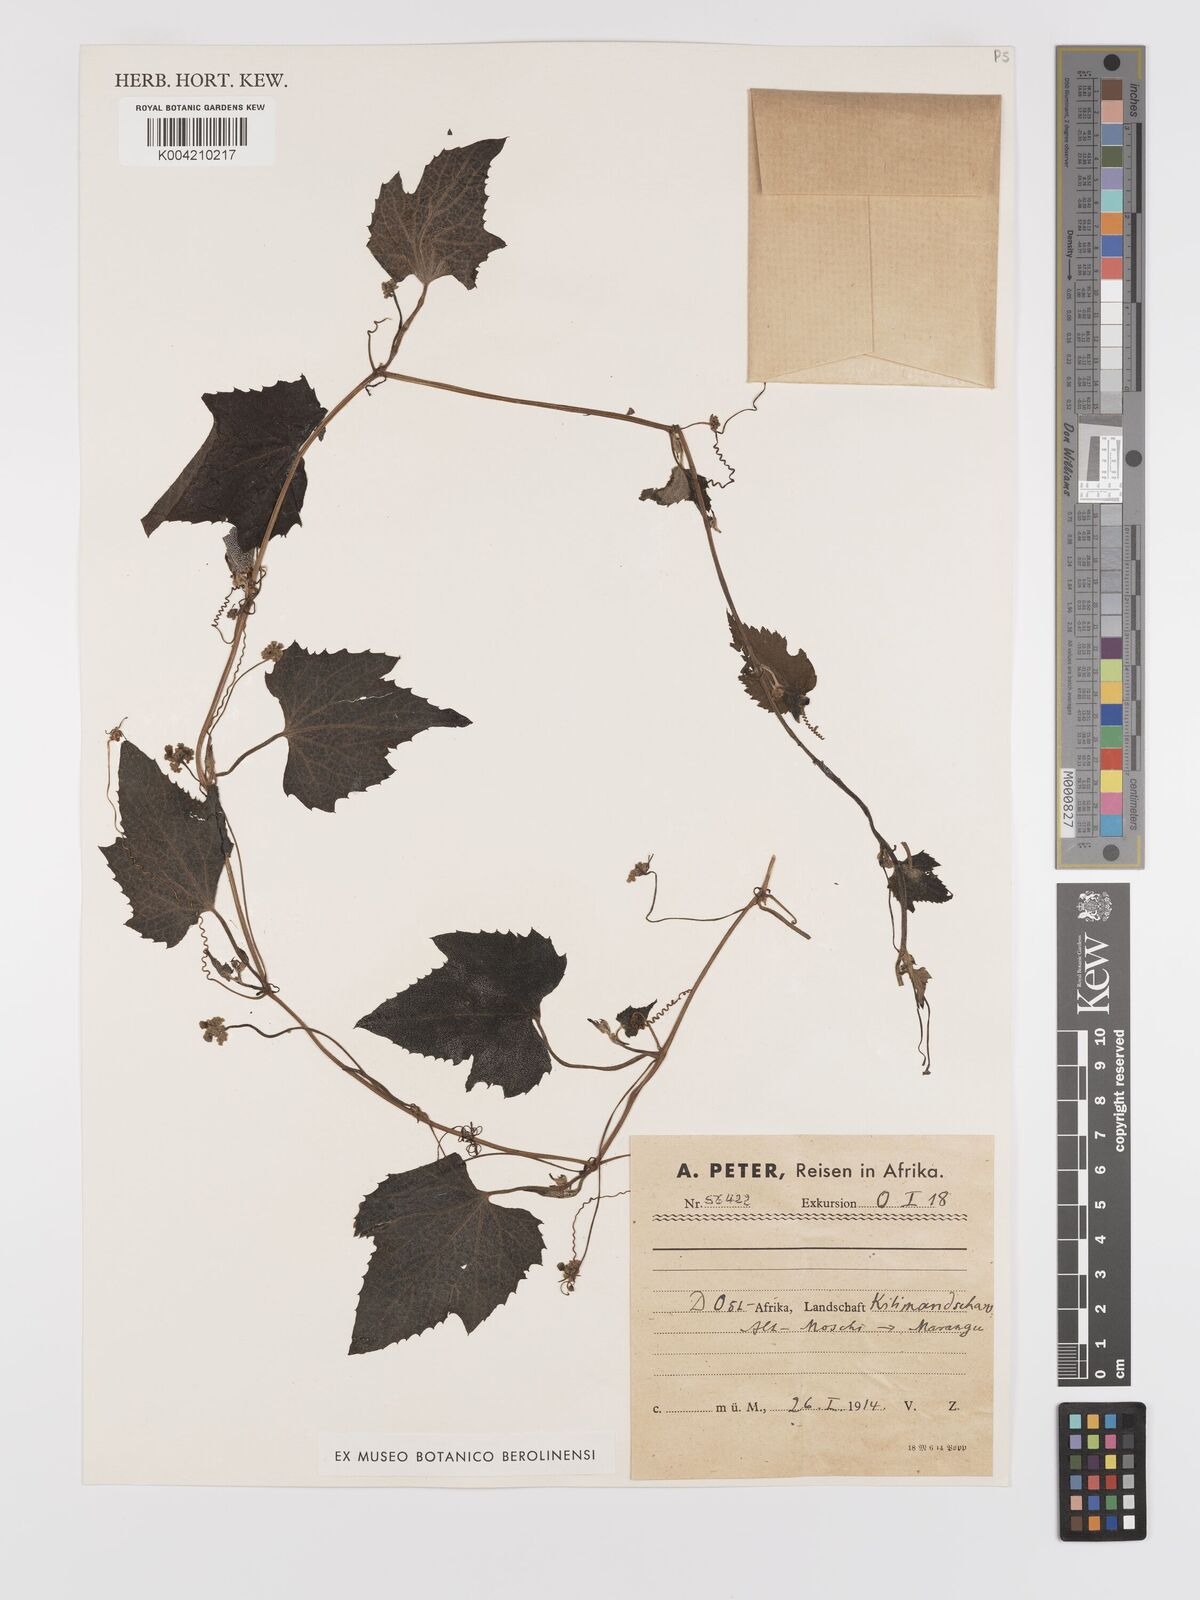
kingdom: Plantae
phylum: Tracheophyta
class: Magnoliopsida
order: Cucurbitales
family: Cucurbitaceae
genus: Zehneria
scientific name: Zehneria scabra
